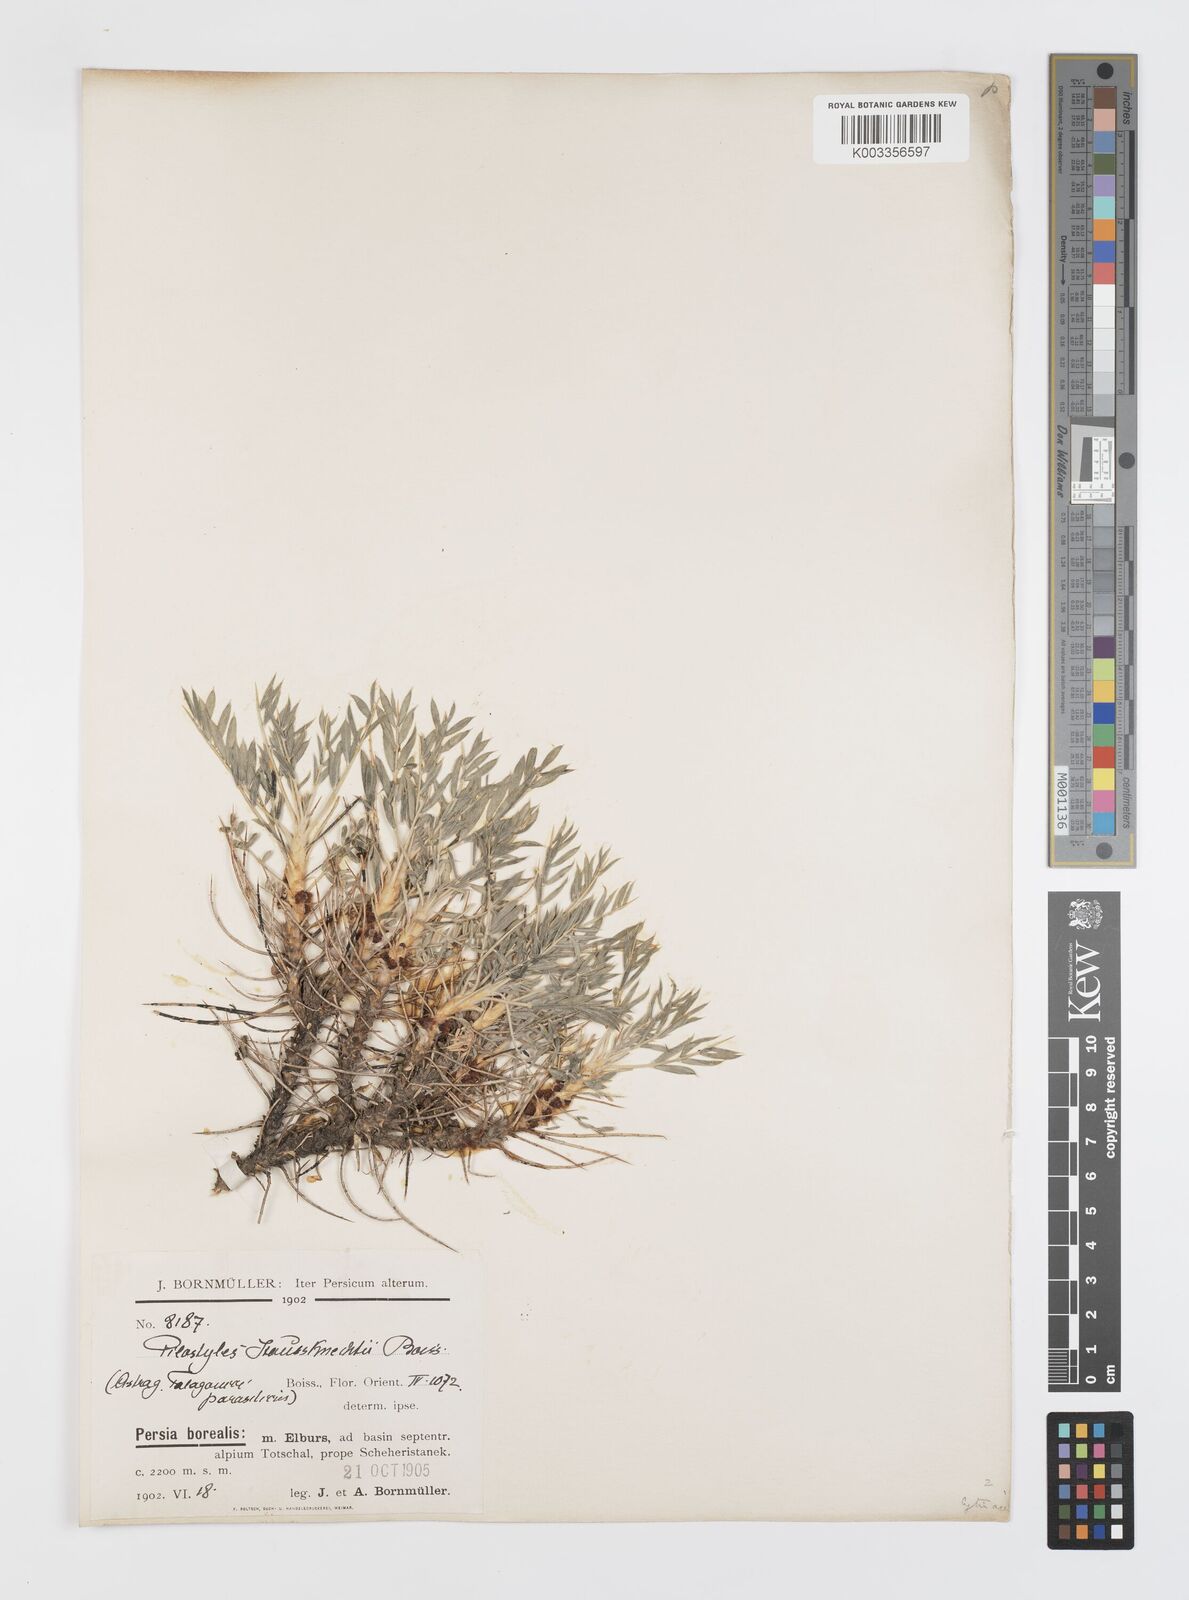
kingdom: Plantae
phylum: Tracheophyta
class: Magnoliopsida
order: Cucurbitales
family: Apodanthaceae
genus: Pilostyles
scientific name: Pilostyles haussknechtii
